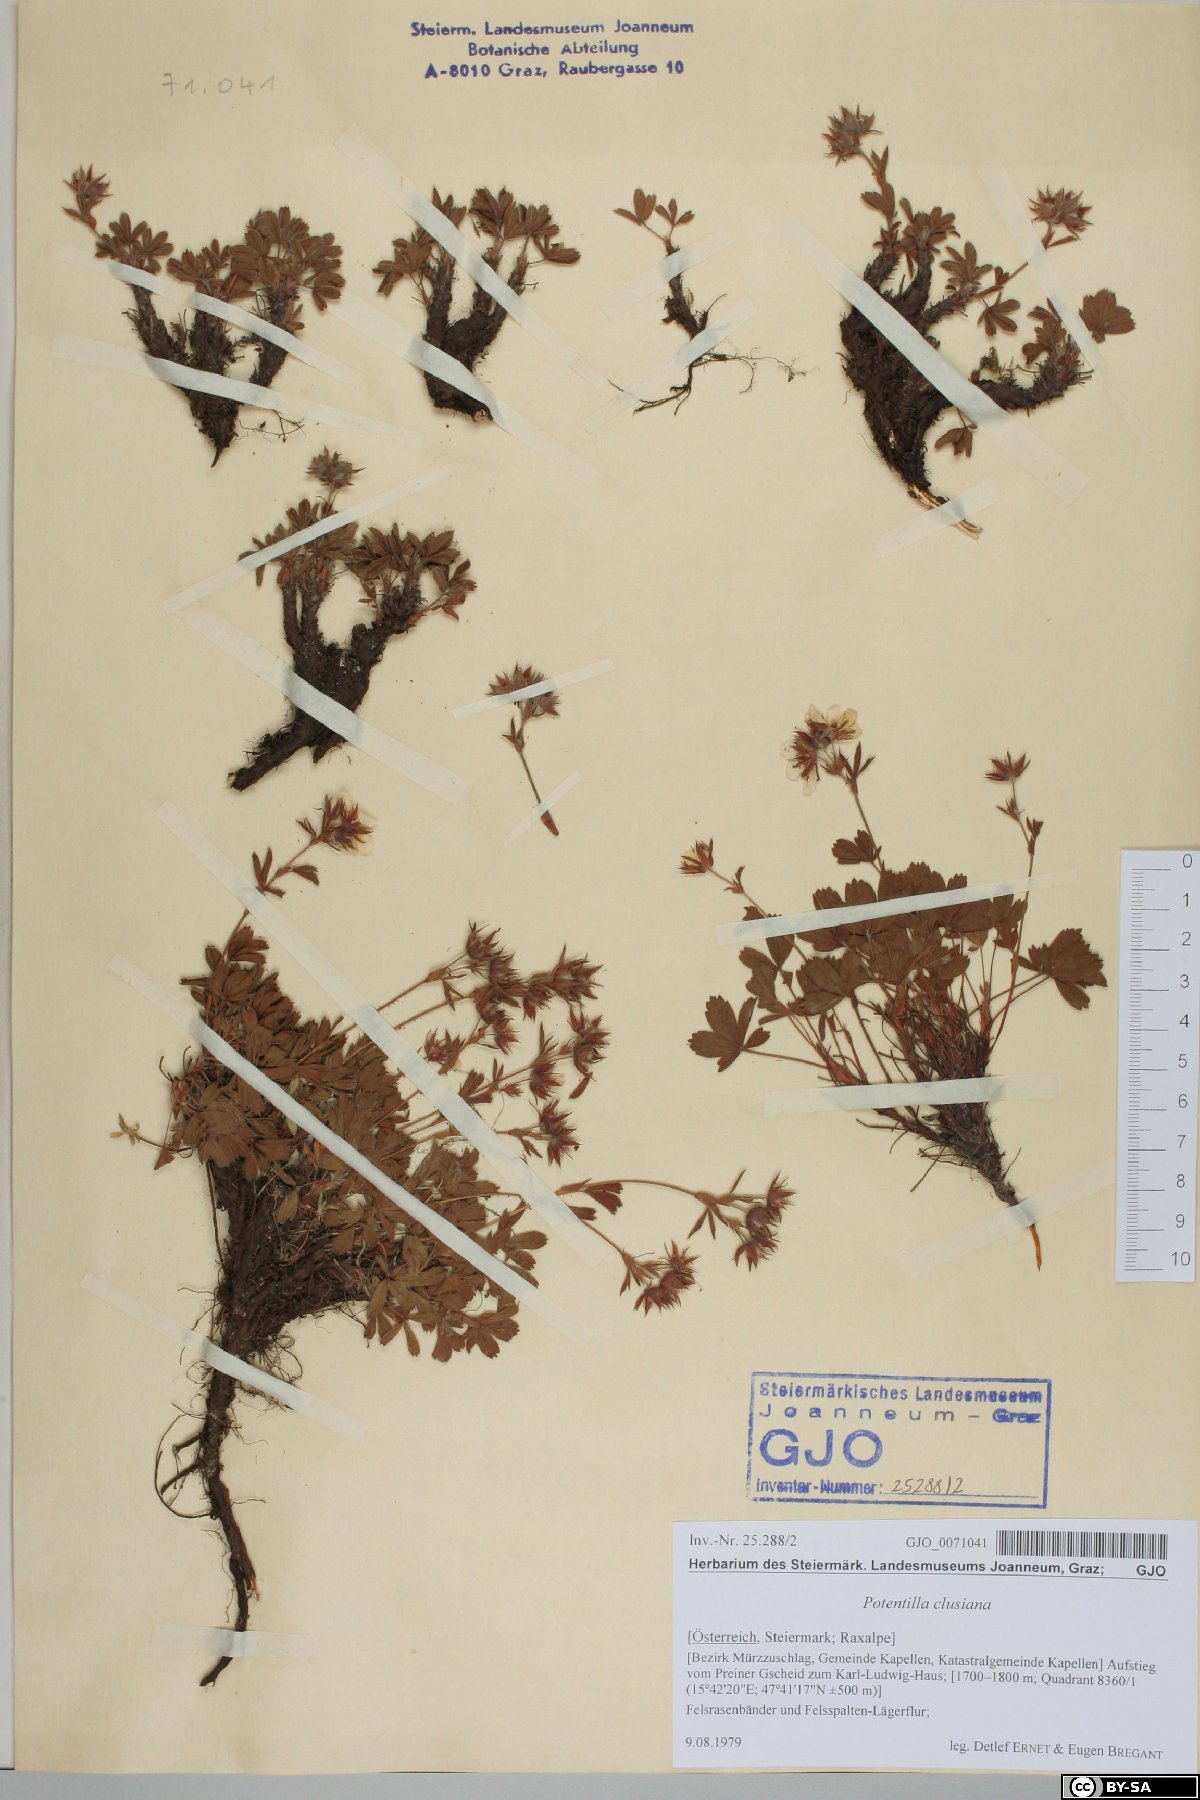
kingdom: Plantae
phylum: Tracheophyta
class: Magnoliopsida
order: Rosales
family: Rosaceae
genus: Potentilla
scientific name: Potentilla clusiana
